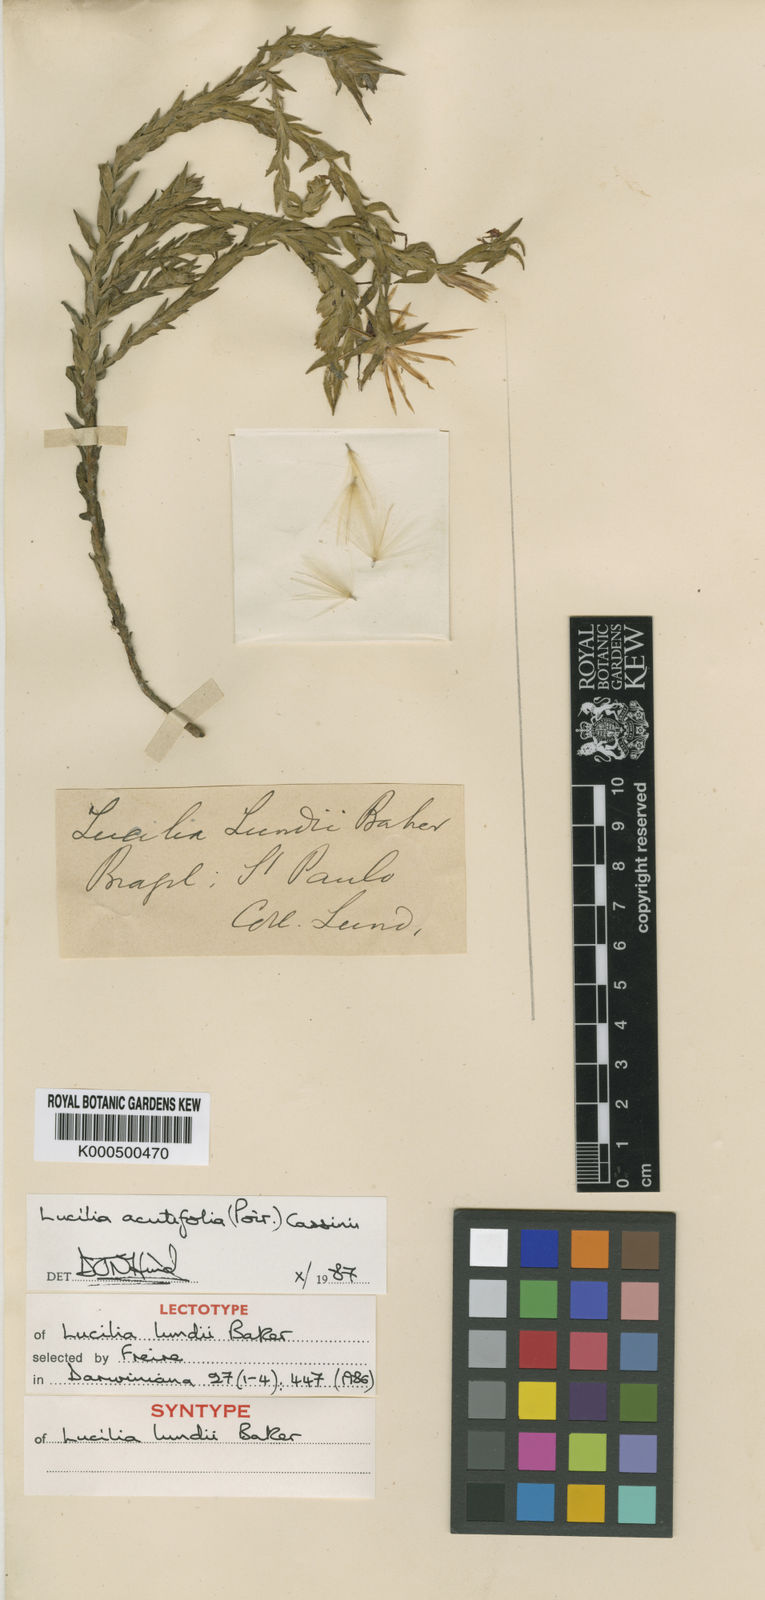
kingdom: Plantae
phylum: Tracheophyta
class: Magnoliopsida
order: Asterales
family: Asteraceae
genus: Lucilia
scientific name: Lucilia acutifolia
